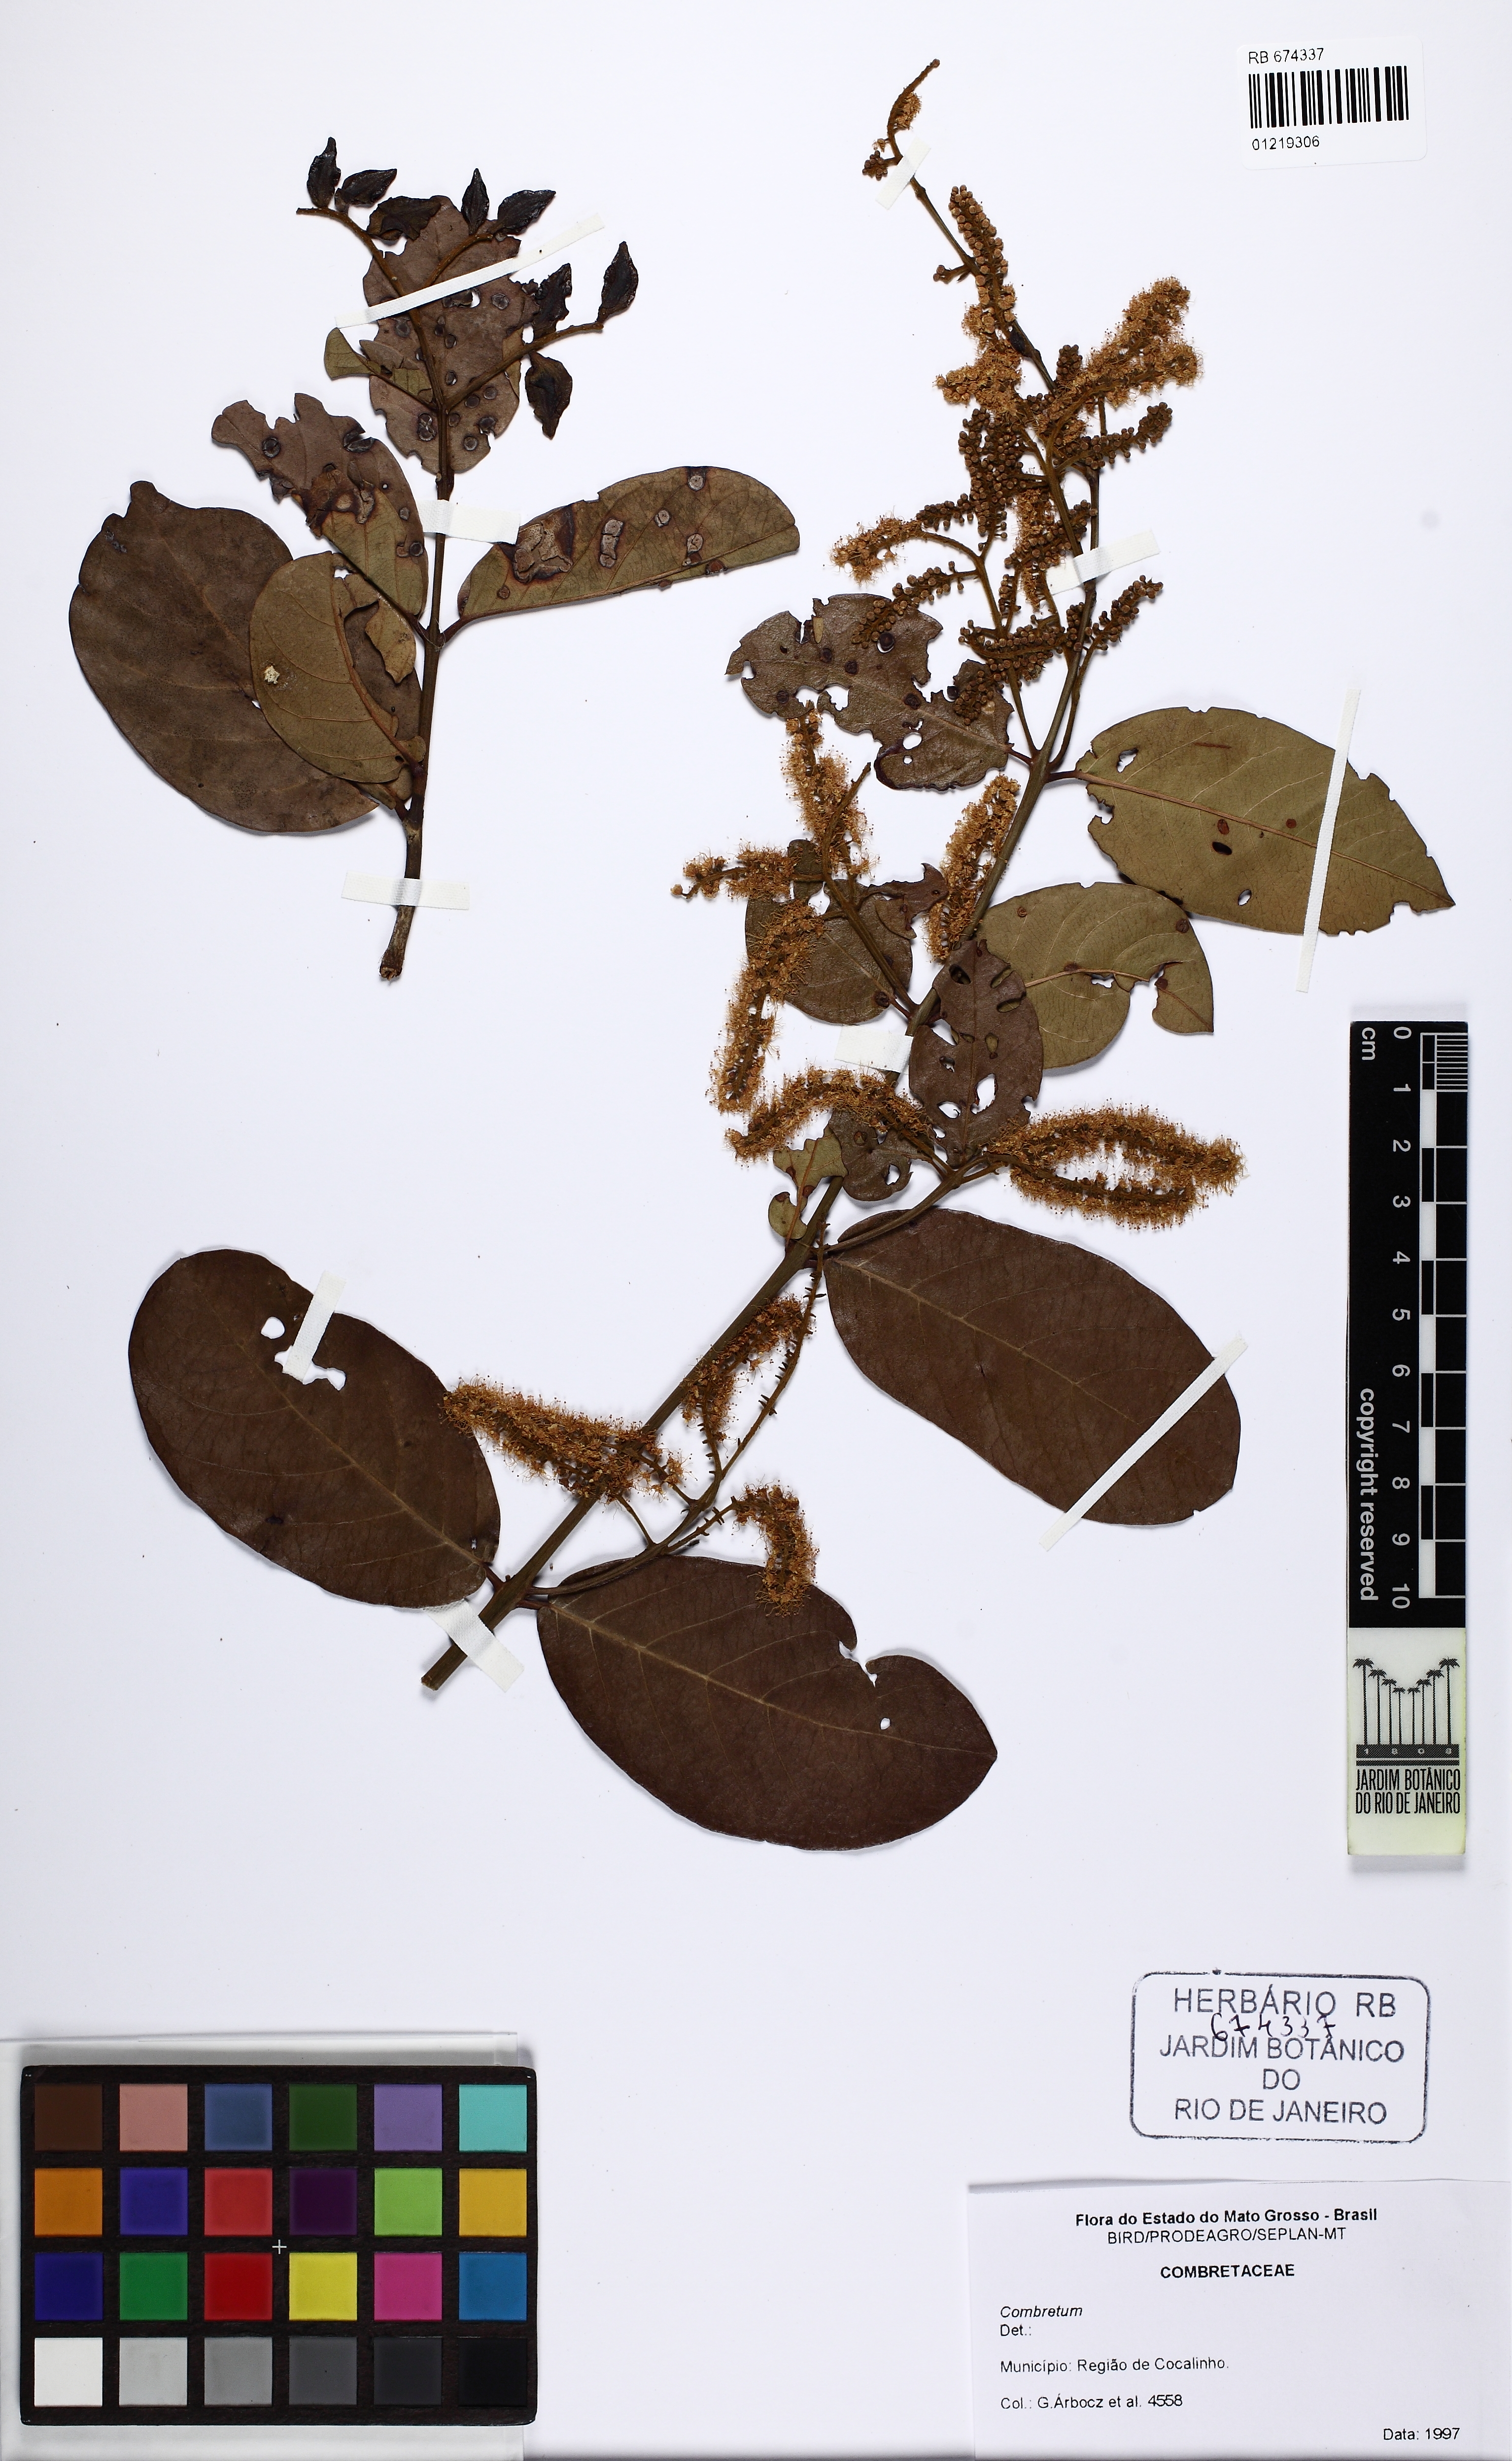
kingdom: Plantae
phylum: Tracheophyta
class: Magnoliopsida
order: Myrtales
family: Combretaceae
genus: Combretum
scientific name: Combretum
